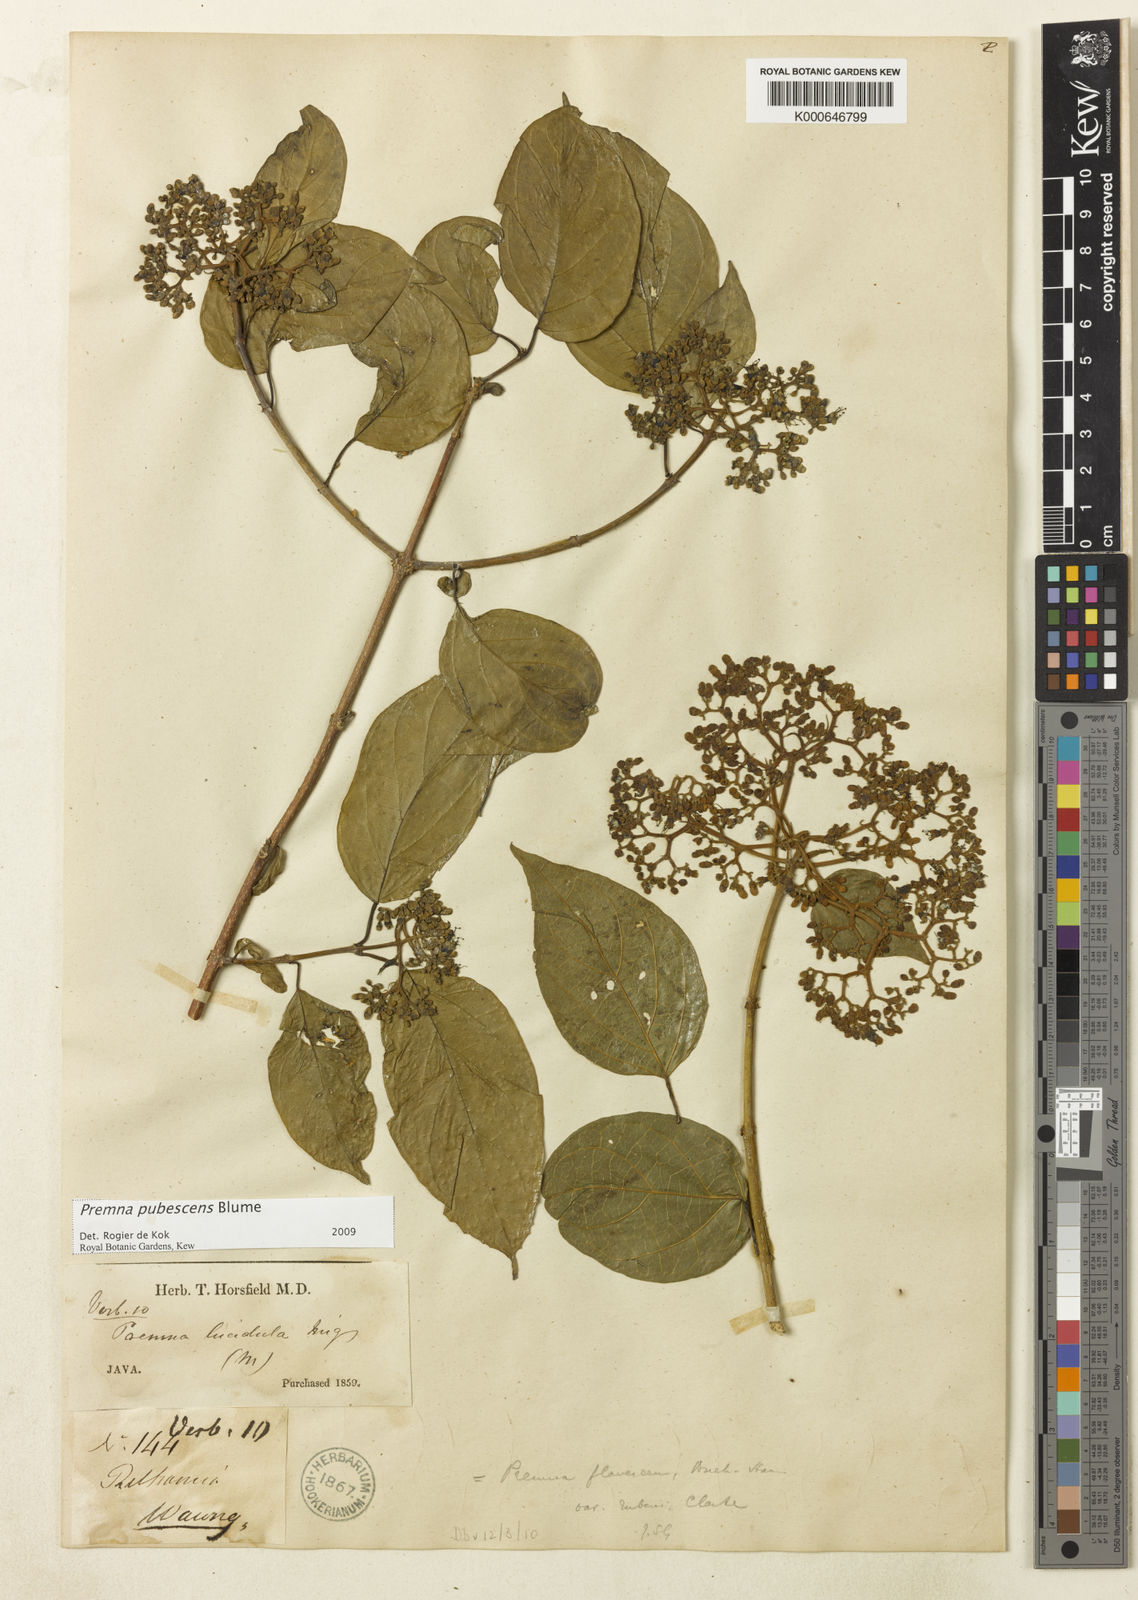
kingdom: Plantae
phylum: Tracheophyta
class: Magnoliopsida
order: Lamiales
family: Lamiaceae
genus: Premna
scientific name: Premna
